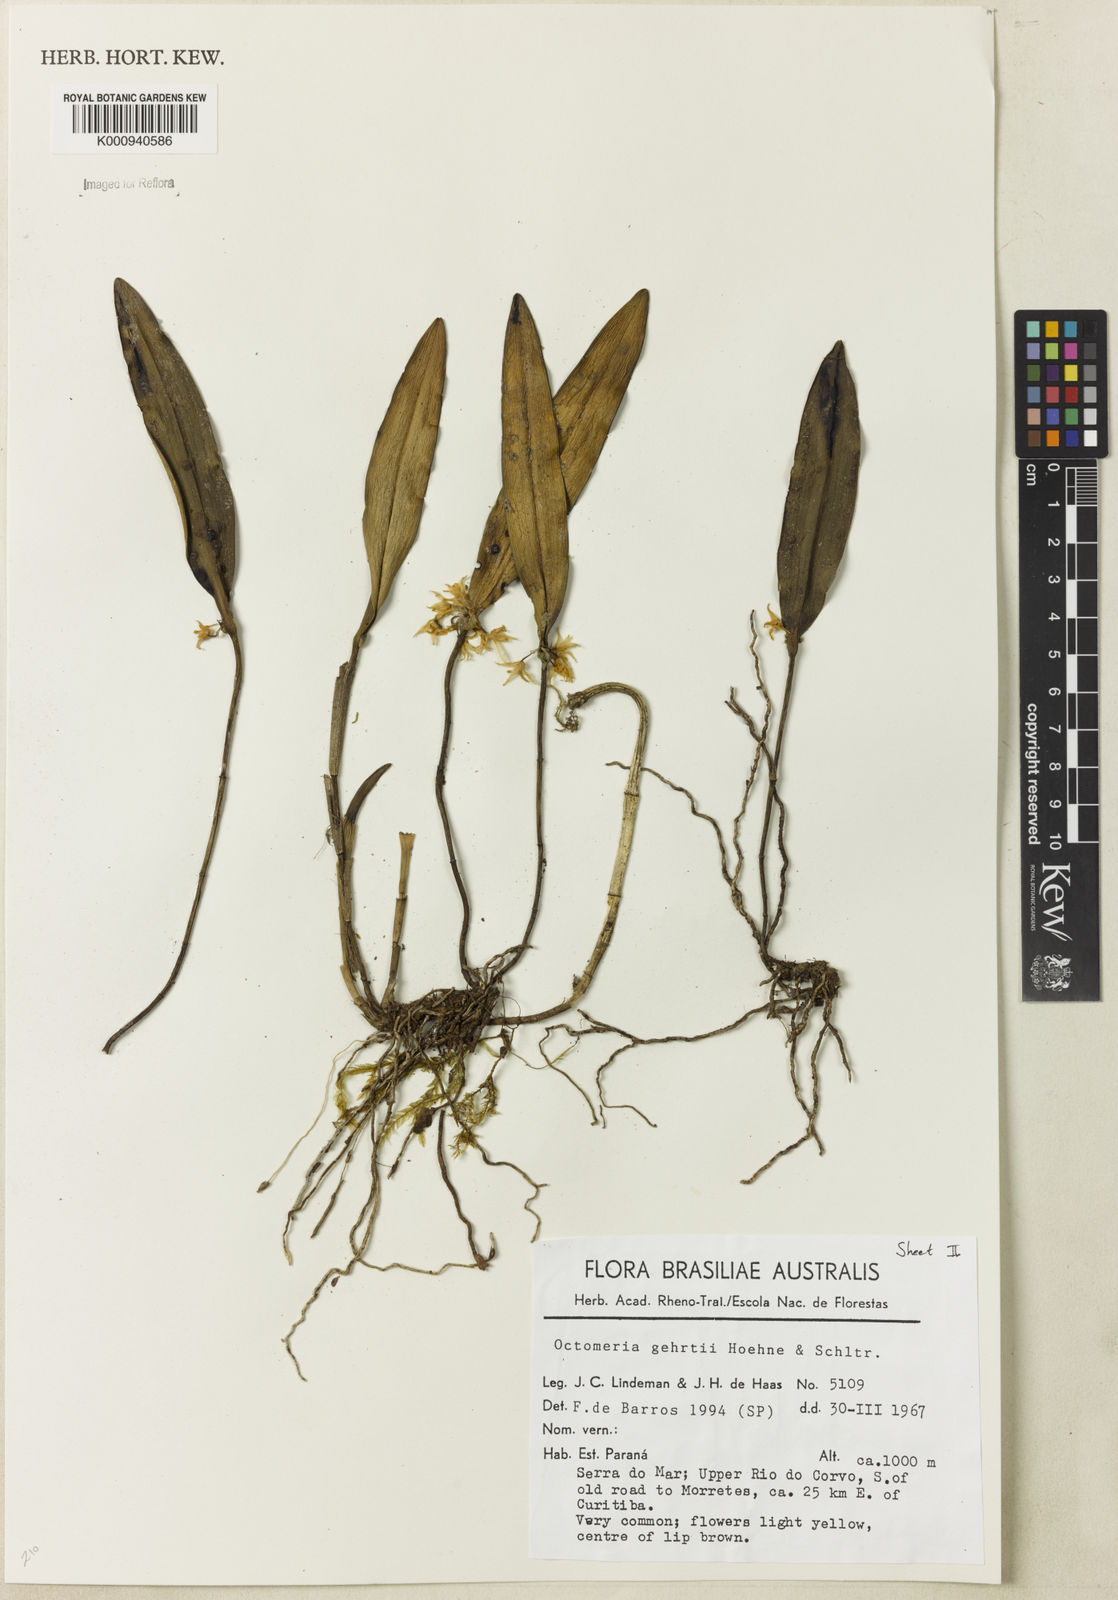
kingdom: Plantae
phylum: Tracheophyta
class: Liliopsida
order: Asparagales
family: Orchidaceae
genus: Octomeria
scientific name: Octomeria gehrtii
